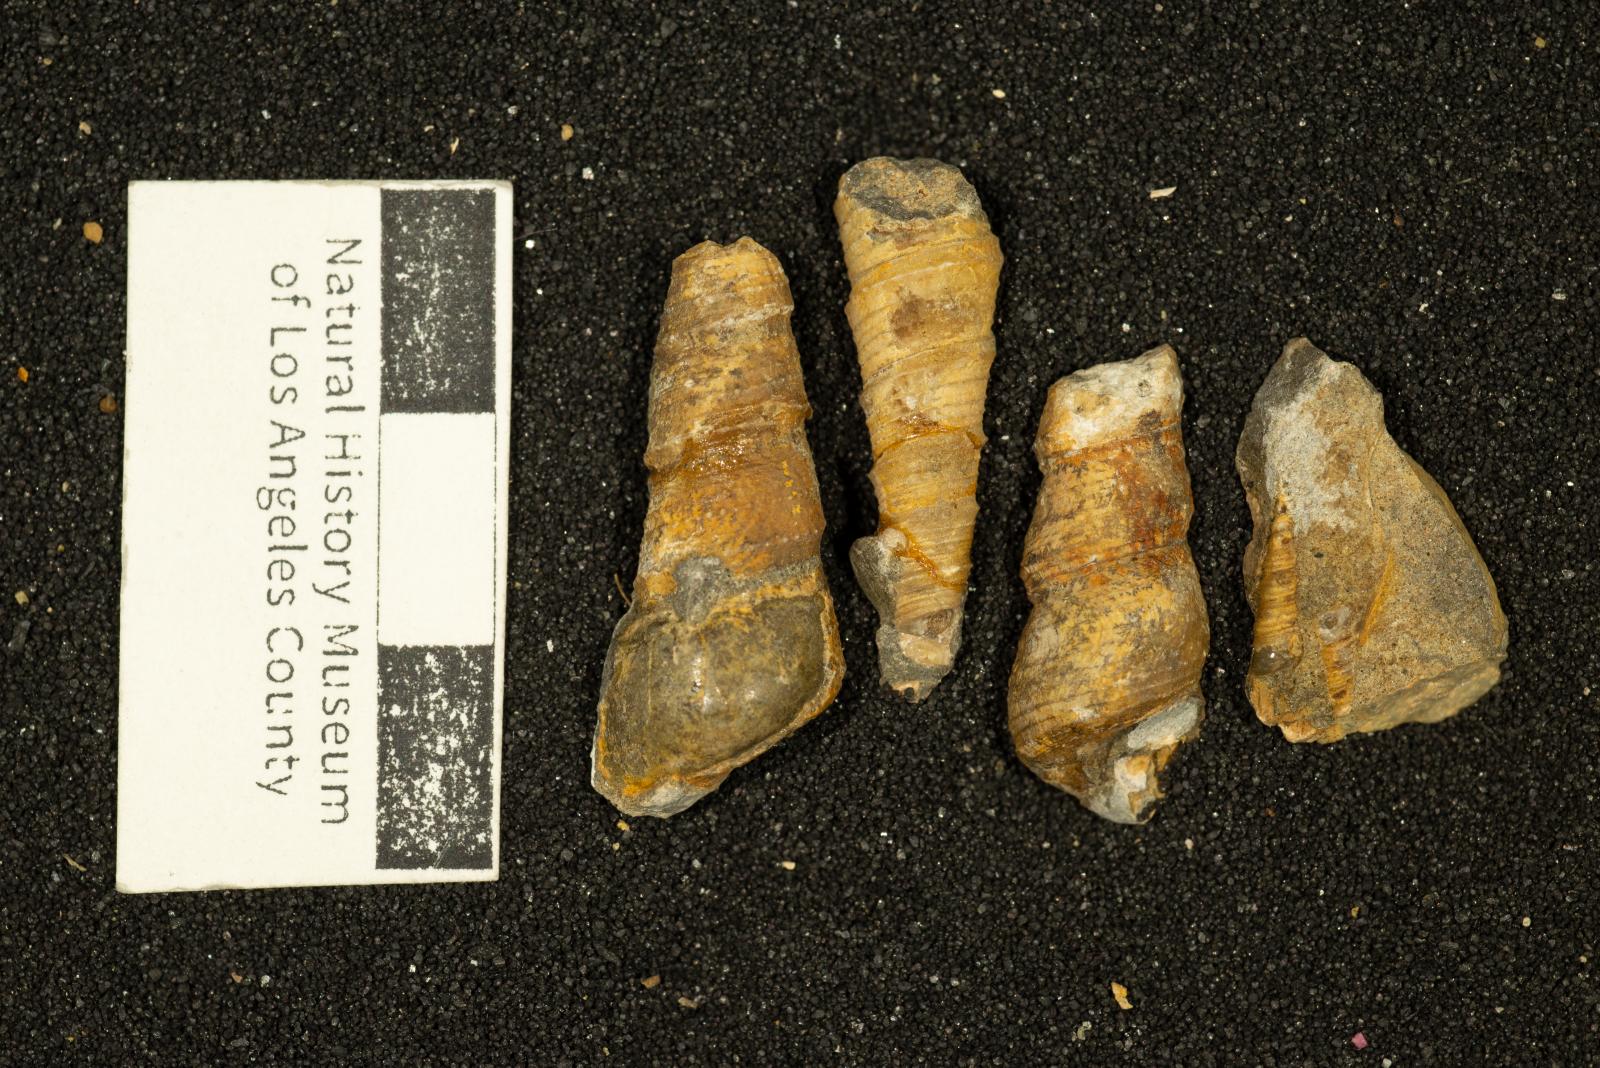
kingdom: Animalia
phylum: Mollusca
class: Gastropoda
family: Turritellidae
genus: Turritella
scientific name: Turritella iota
